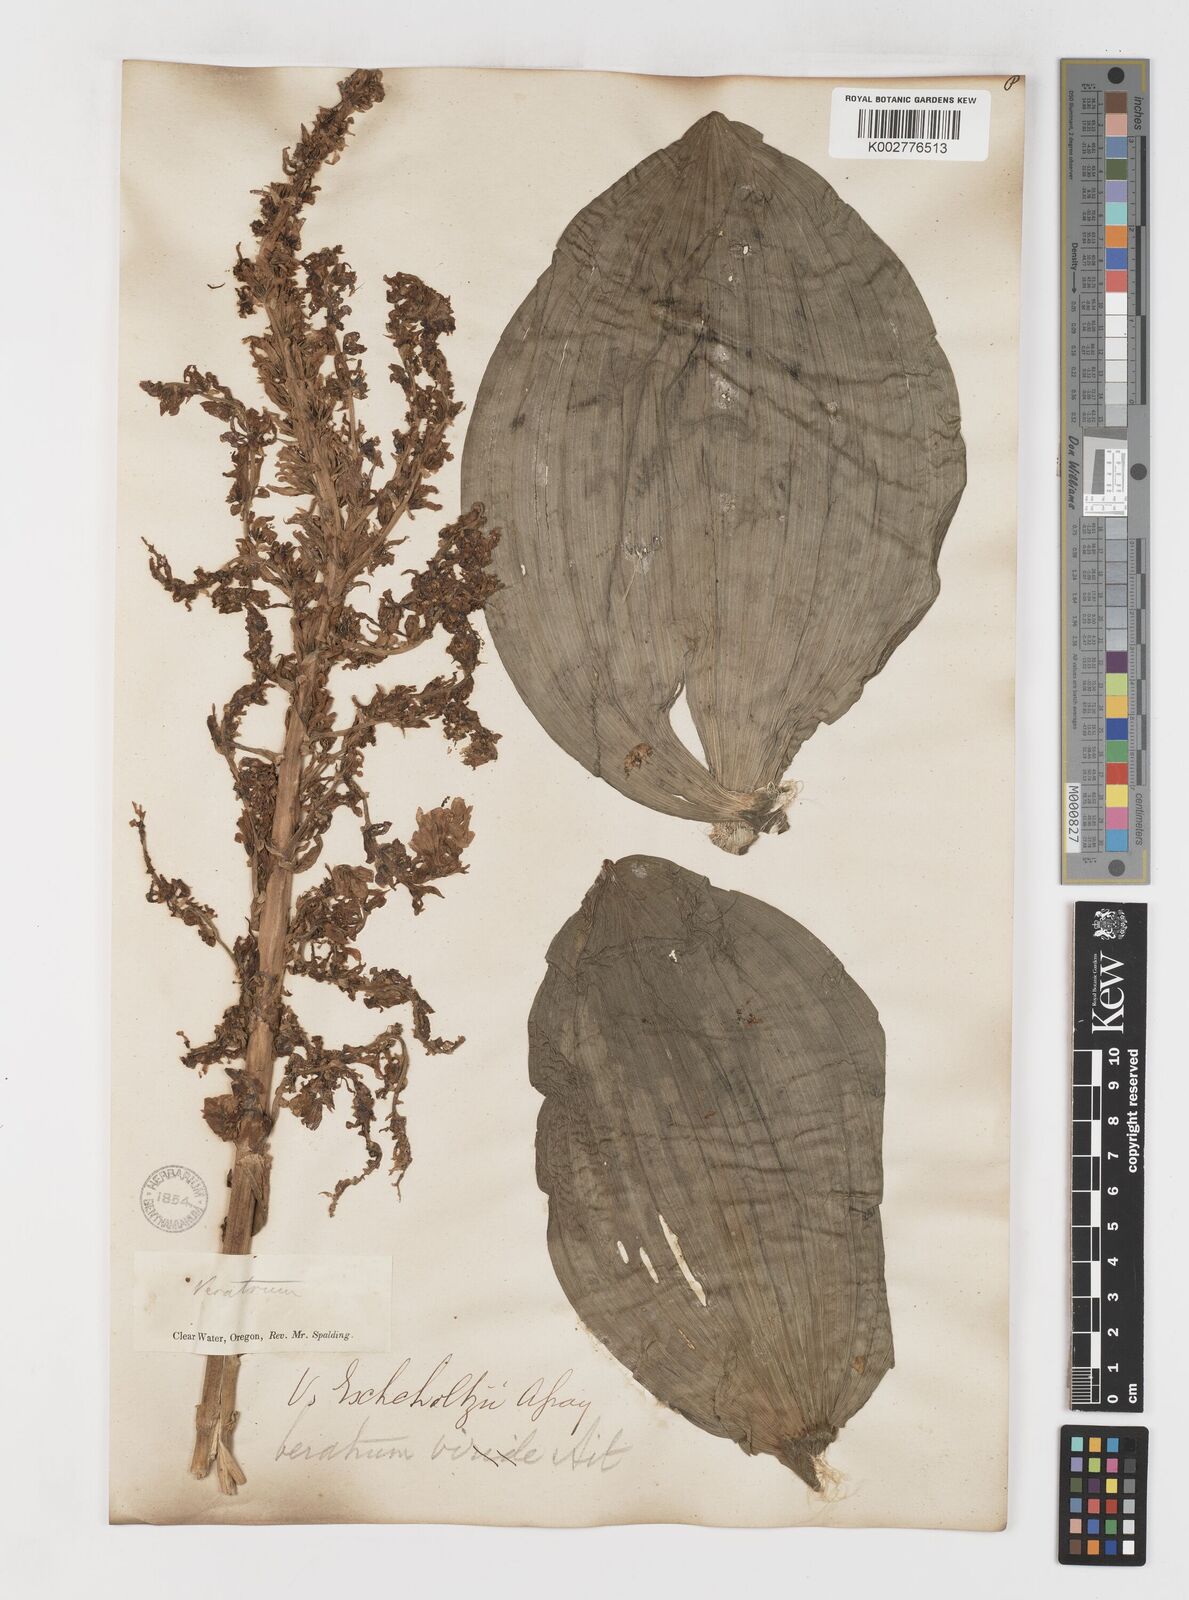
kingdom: Plantae
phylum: Tracheophyta
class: Liliopsida
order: Liliales
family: Melanthiaceae
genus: Veratrum
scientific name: Veratrum viride
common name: American false hellebore
